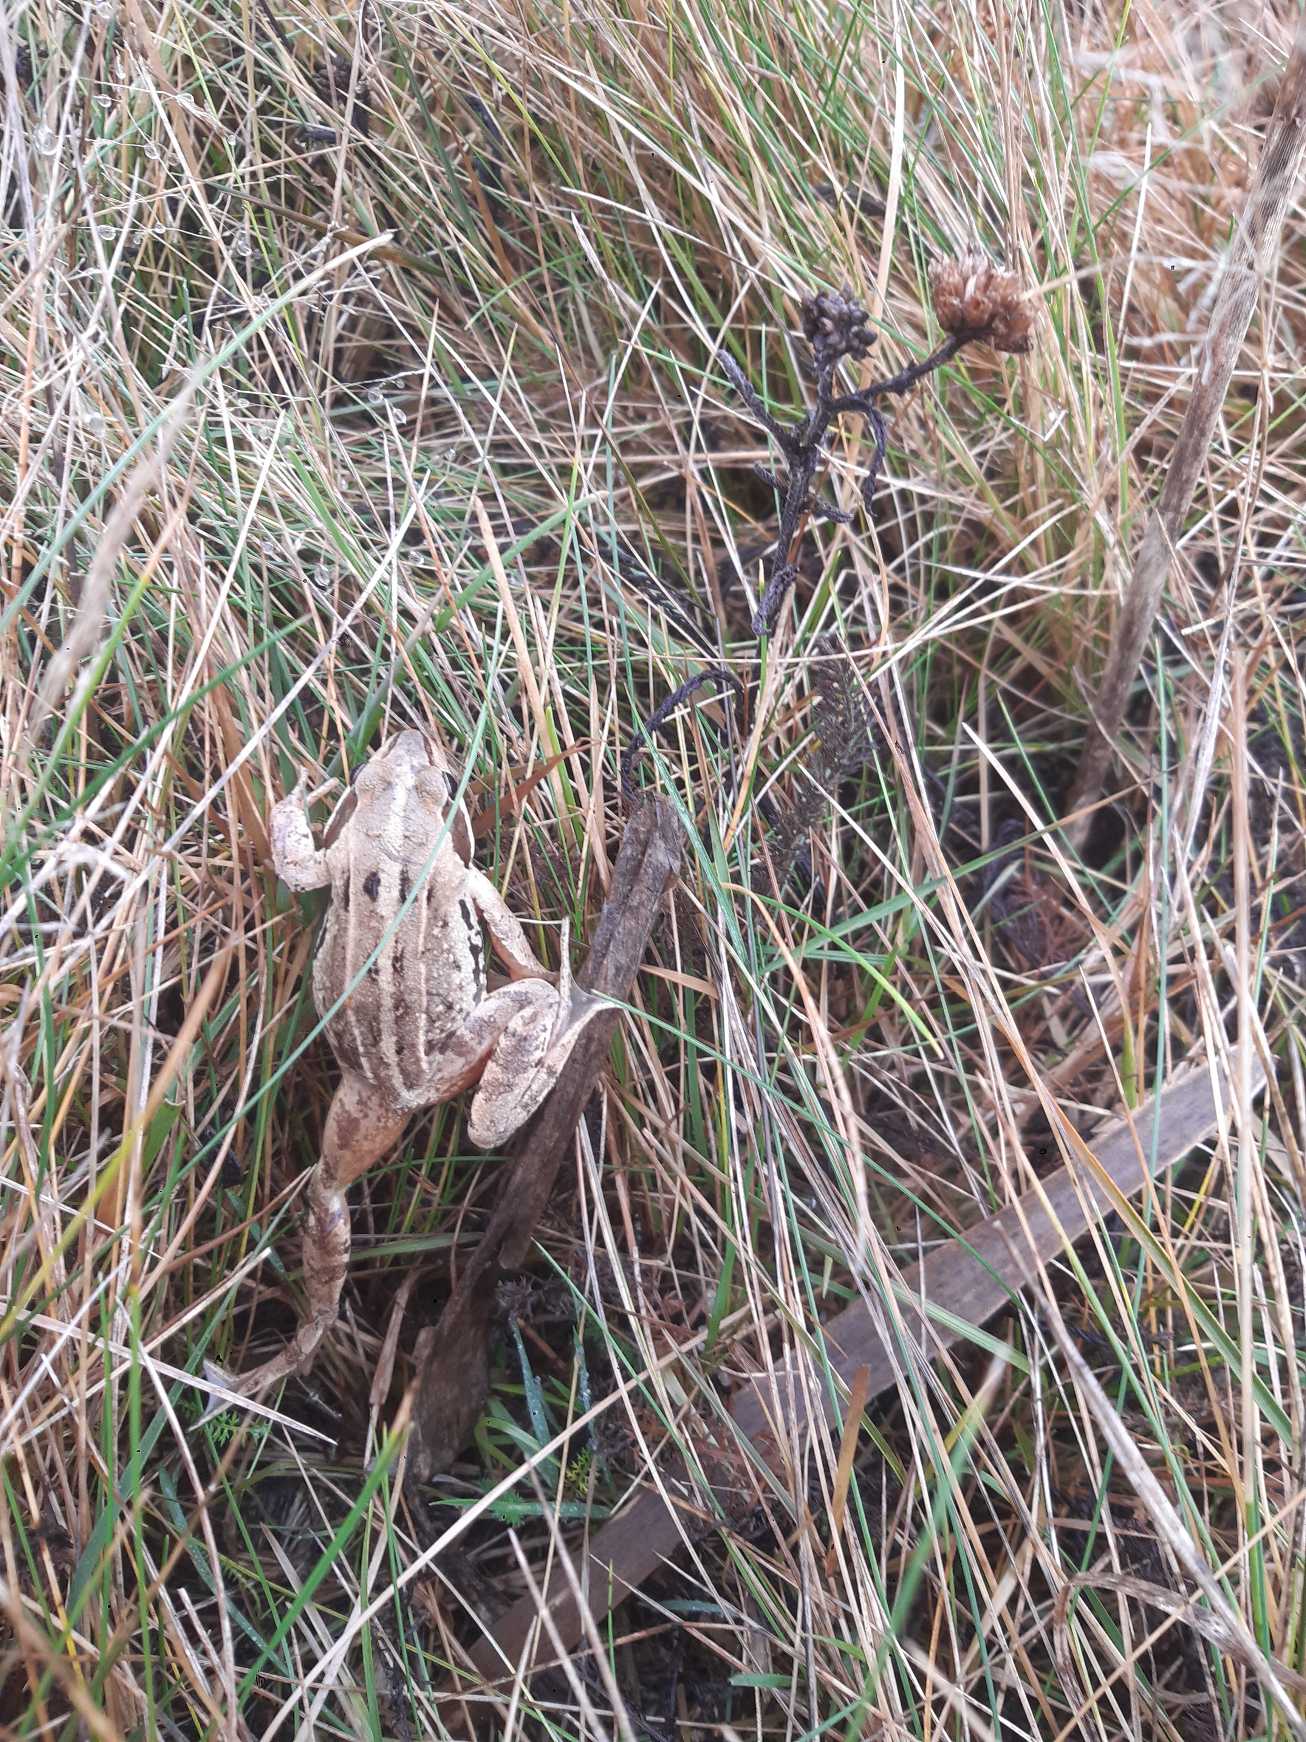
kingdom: Animalia
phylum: Chordata
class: Amphibia
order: Anura
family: Ranidae
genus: Rana
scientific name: Rana arvalis
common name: Spidssnudet frø
